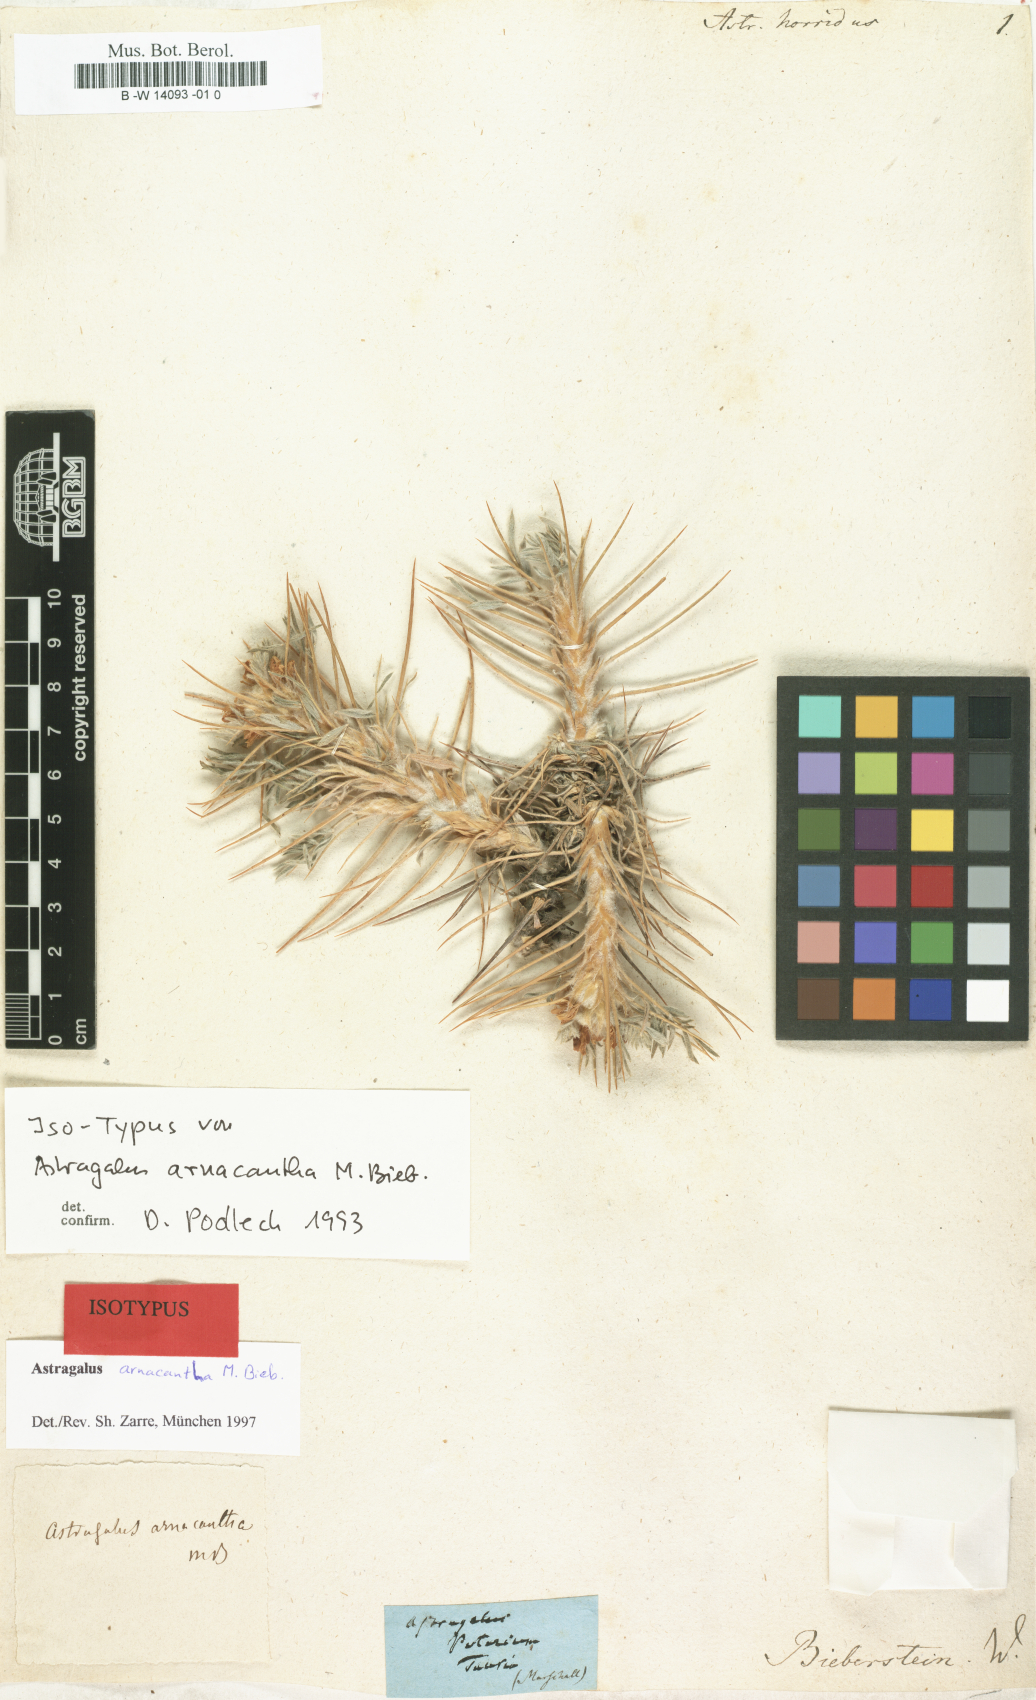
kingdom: Plantae
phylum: Tracheophyta
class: Magnoliopsida
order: Fabales
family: Fabaceae
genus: Astragalus
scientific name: Astragalus horridus
